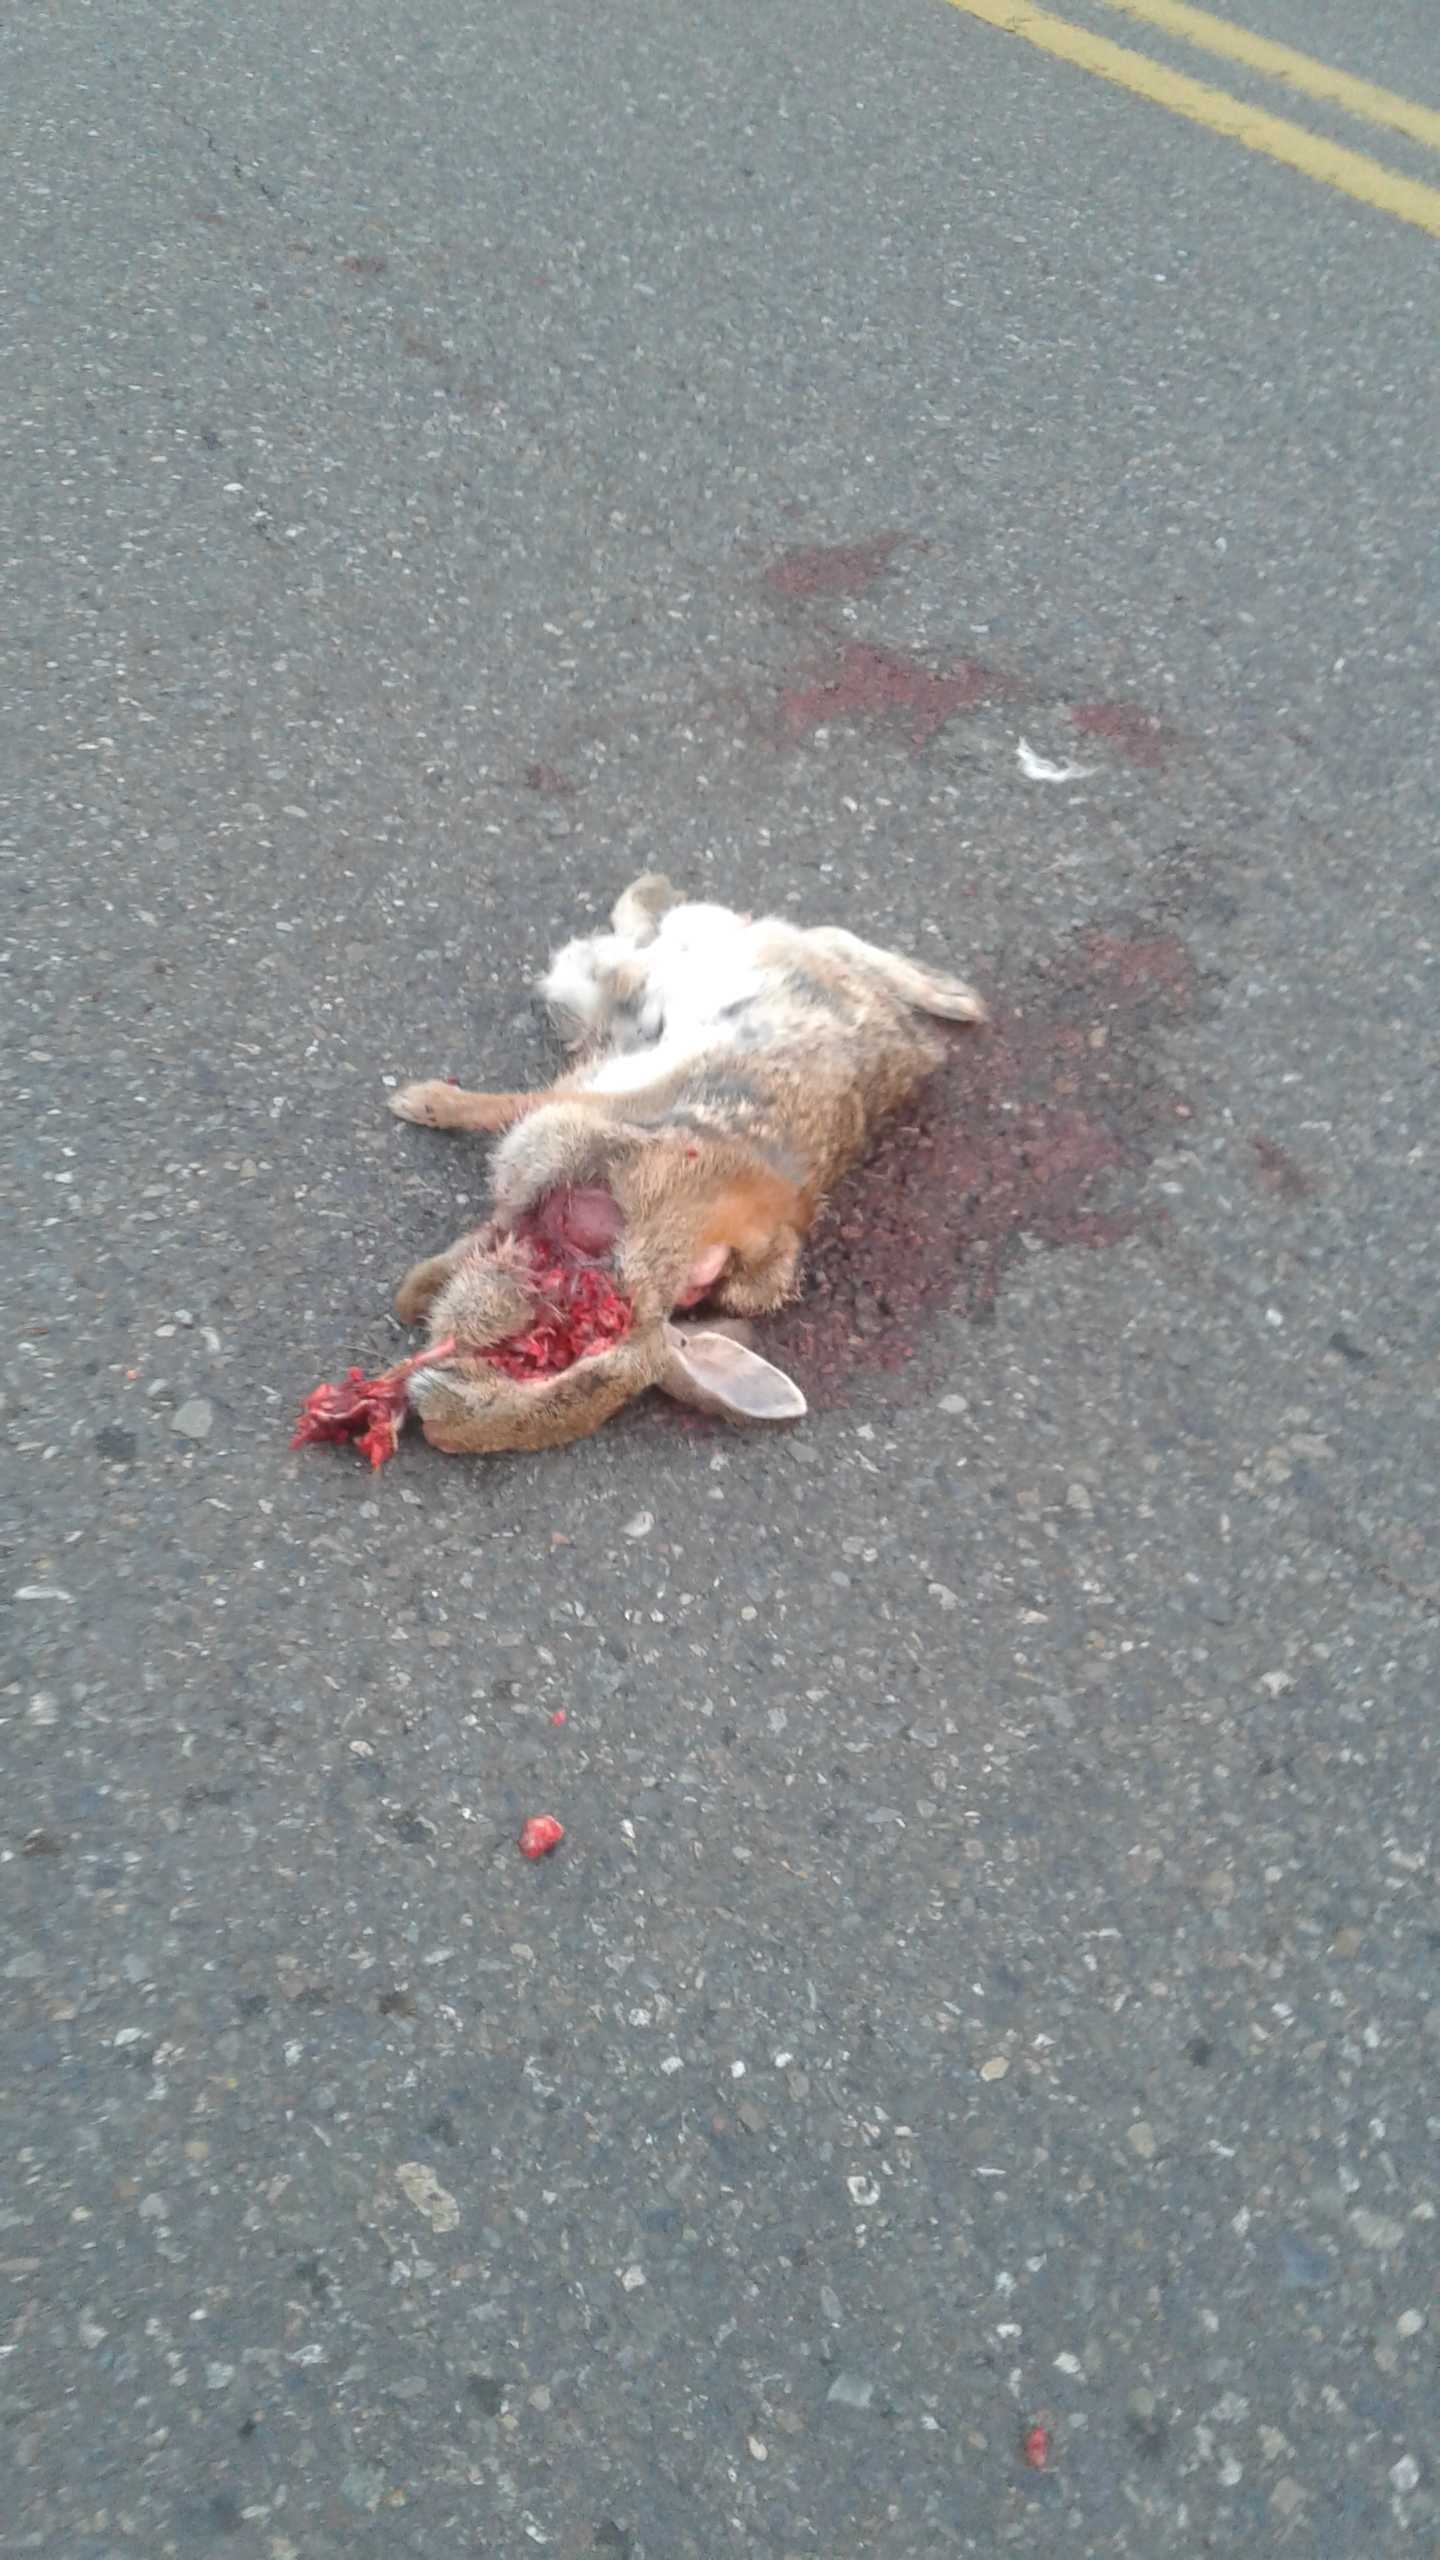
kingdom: Animalia
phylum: Chordata
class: Mammalia
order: Lagomorpha
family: Leporidae
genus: Sylvilagus
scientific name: Sylvilagus floridanus
